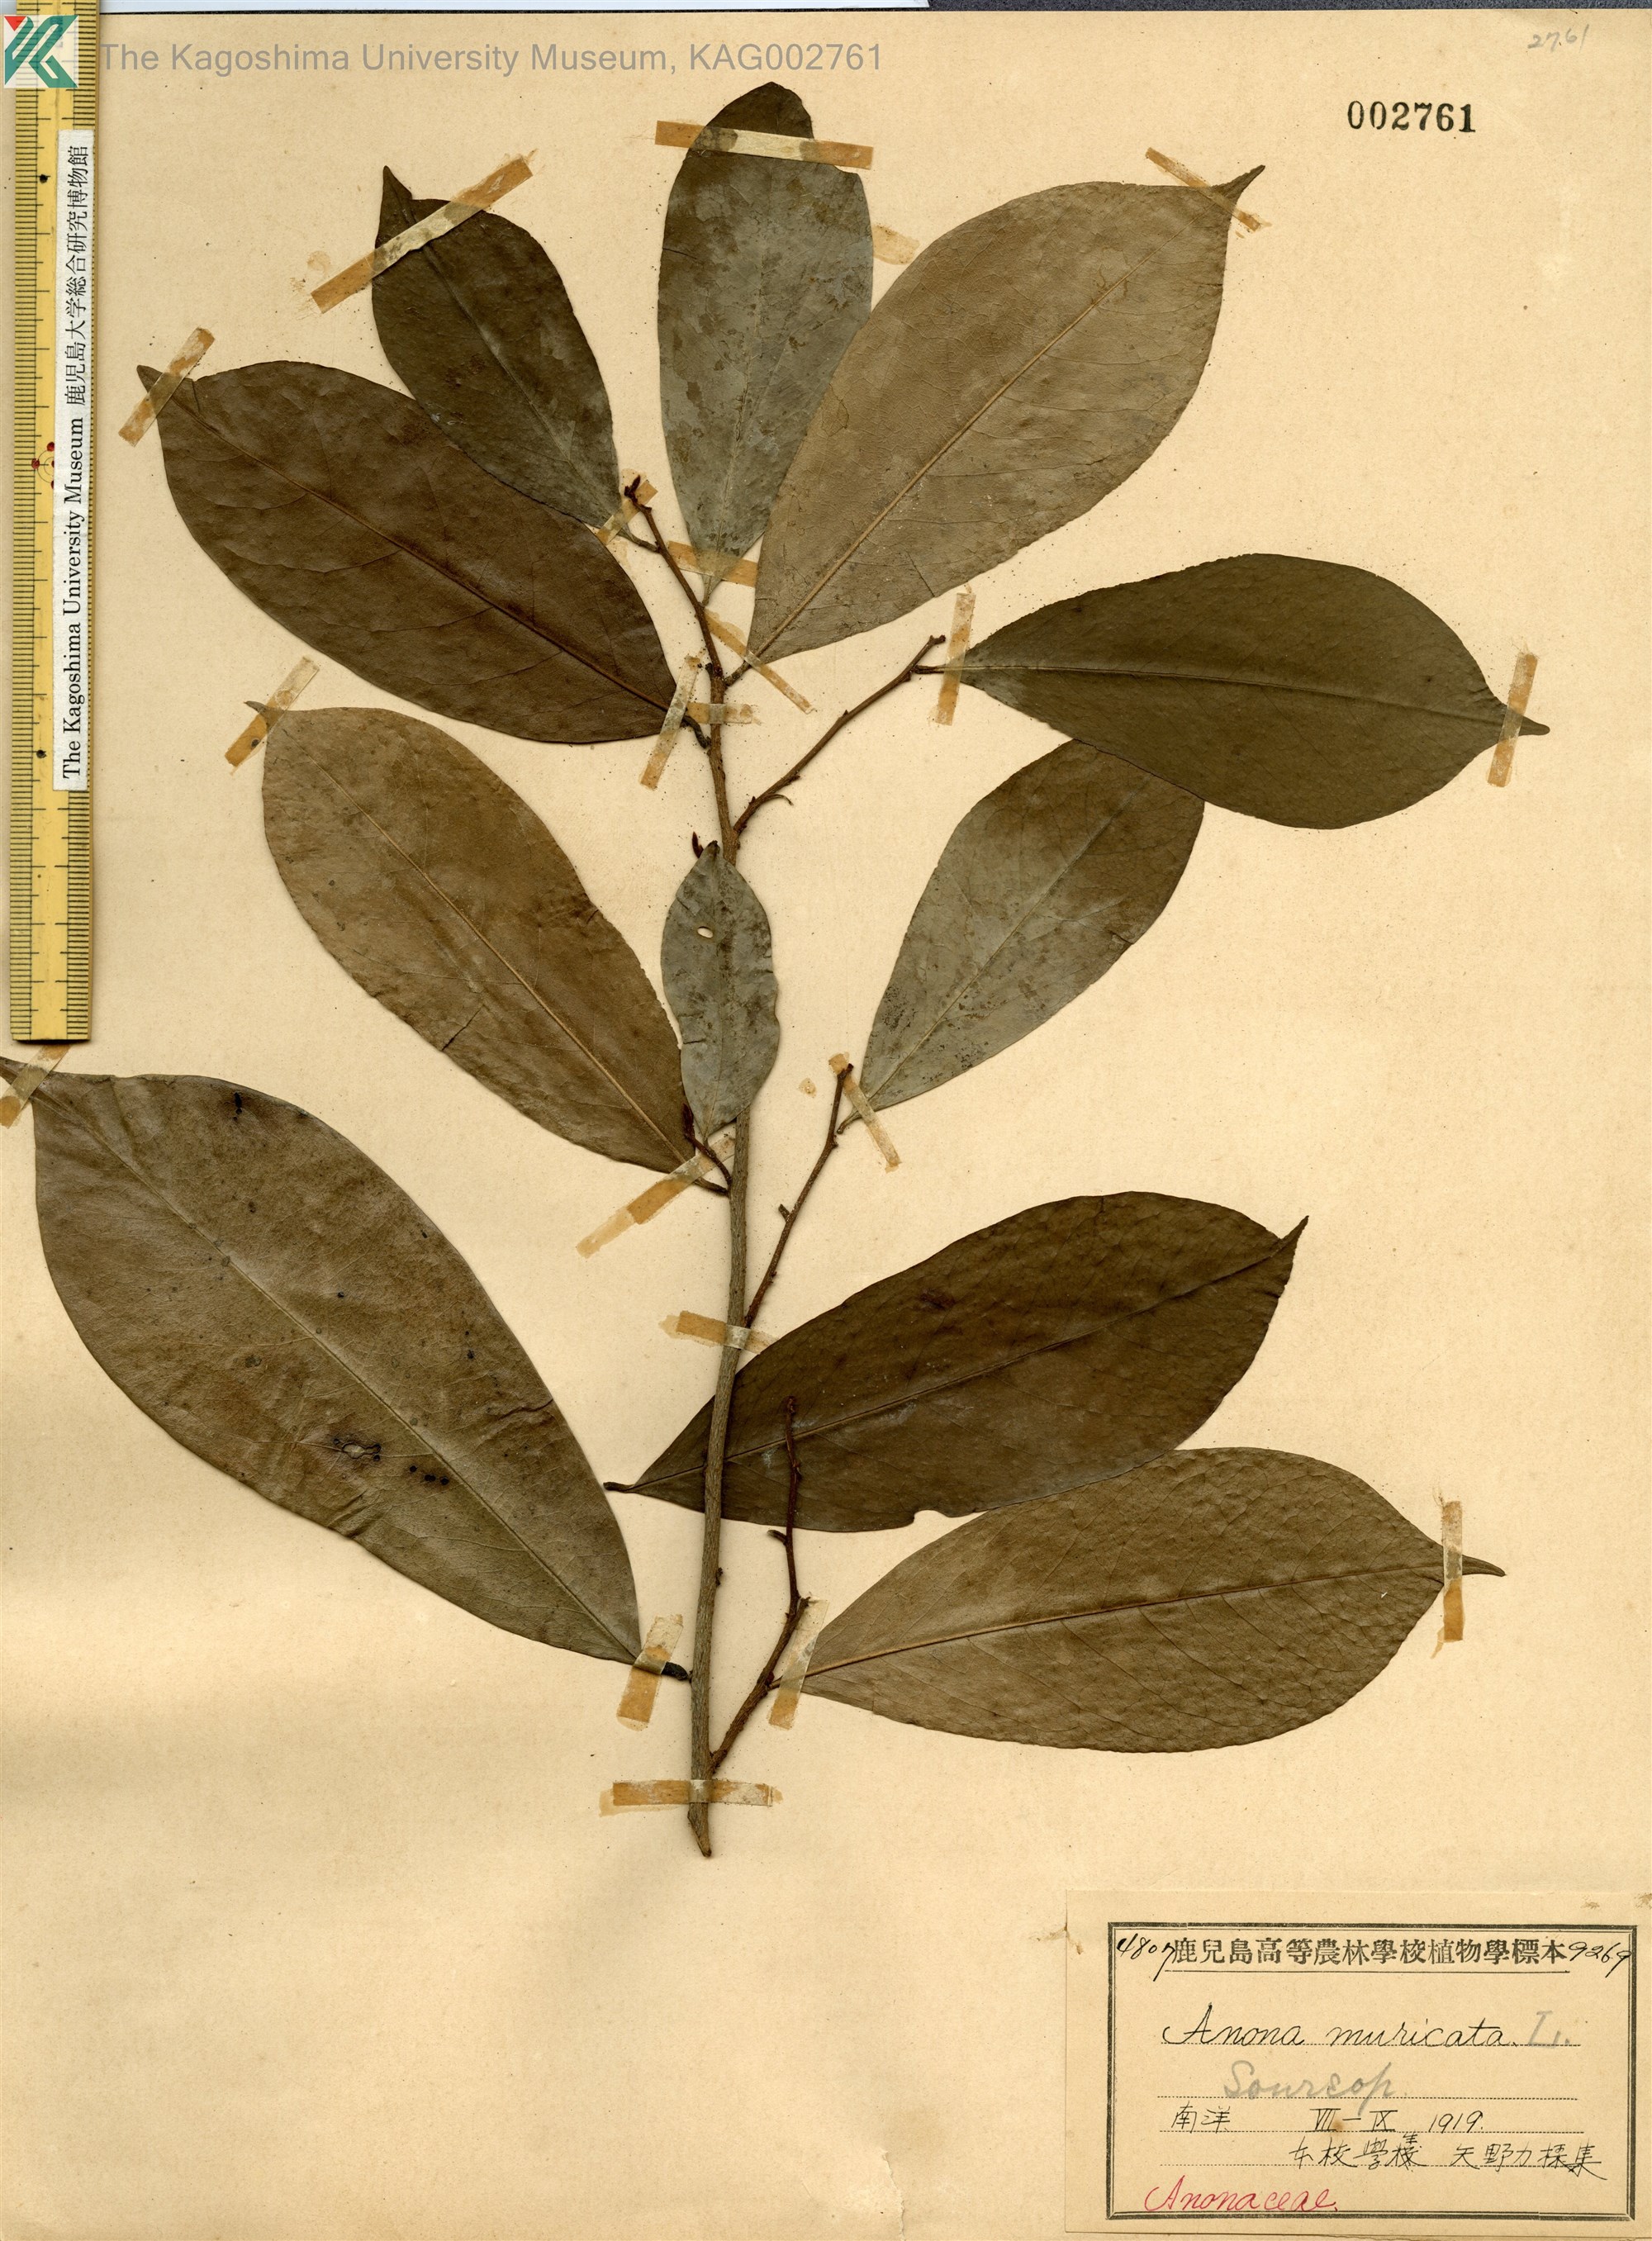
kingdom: Plantae
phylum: Tracheophyta
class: Magnoliopsida
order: Magnoliales
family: Annonaceae
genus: Annona
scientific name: Annona muricata
